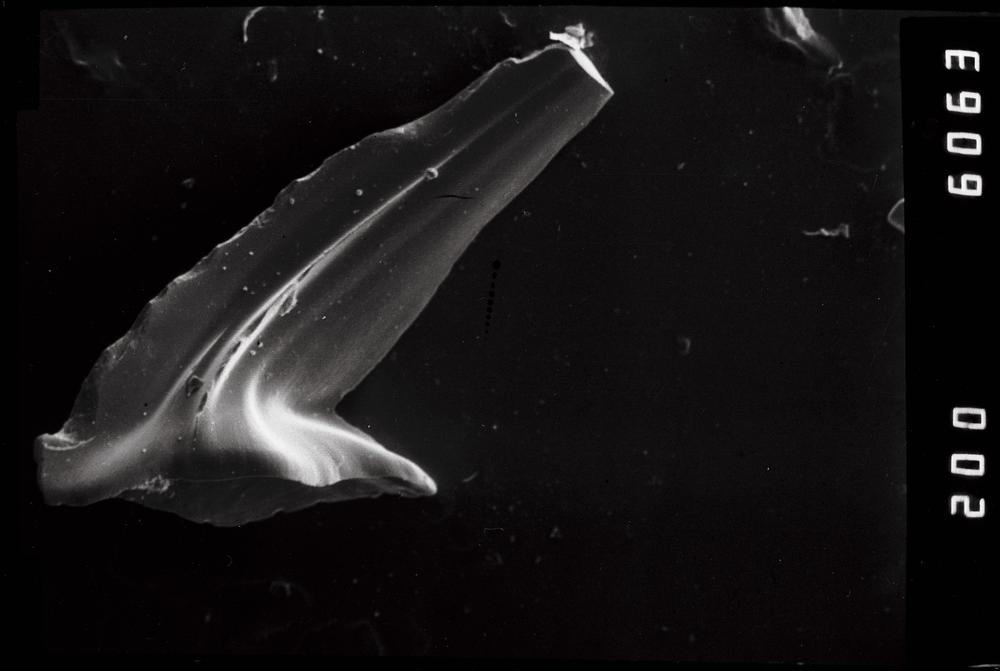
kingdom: Animalia
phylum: Chordata
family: Acodontidae
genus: Acodus
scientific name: Acodus
